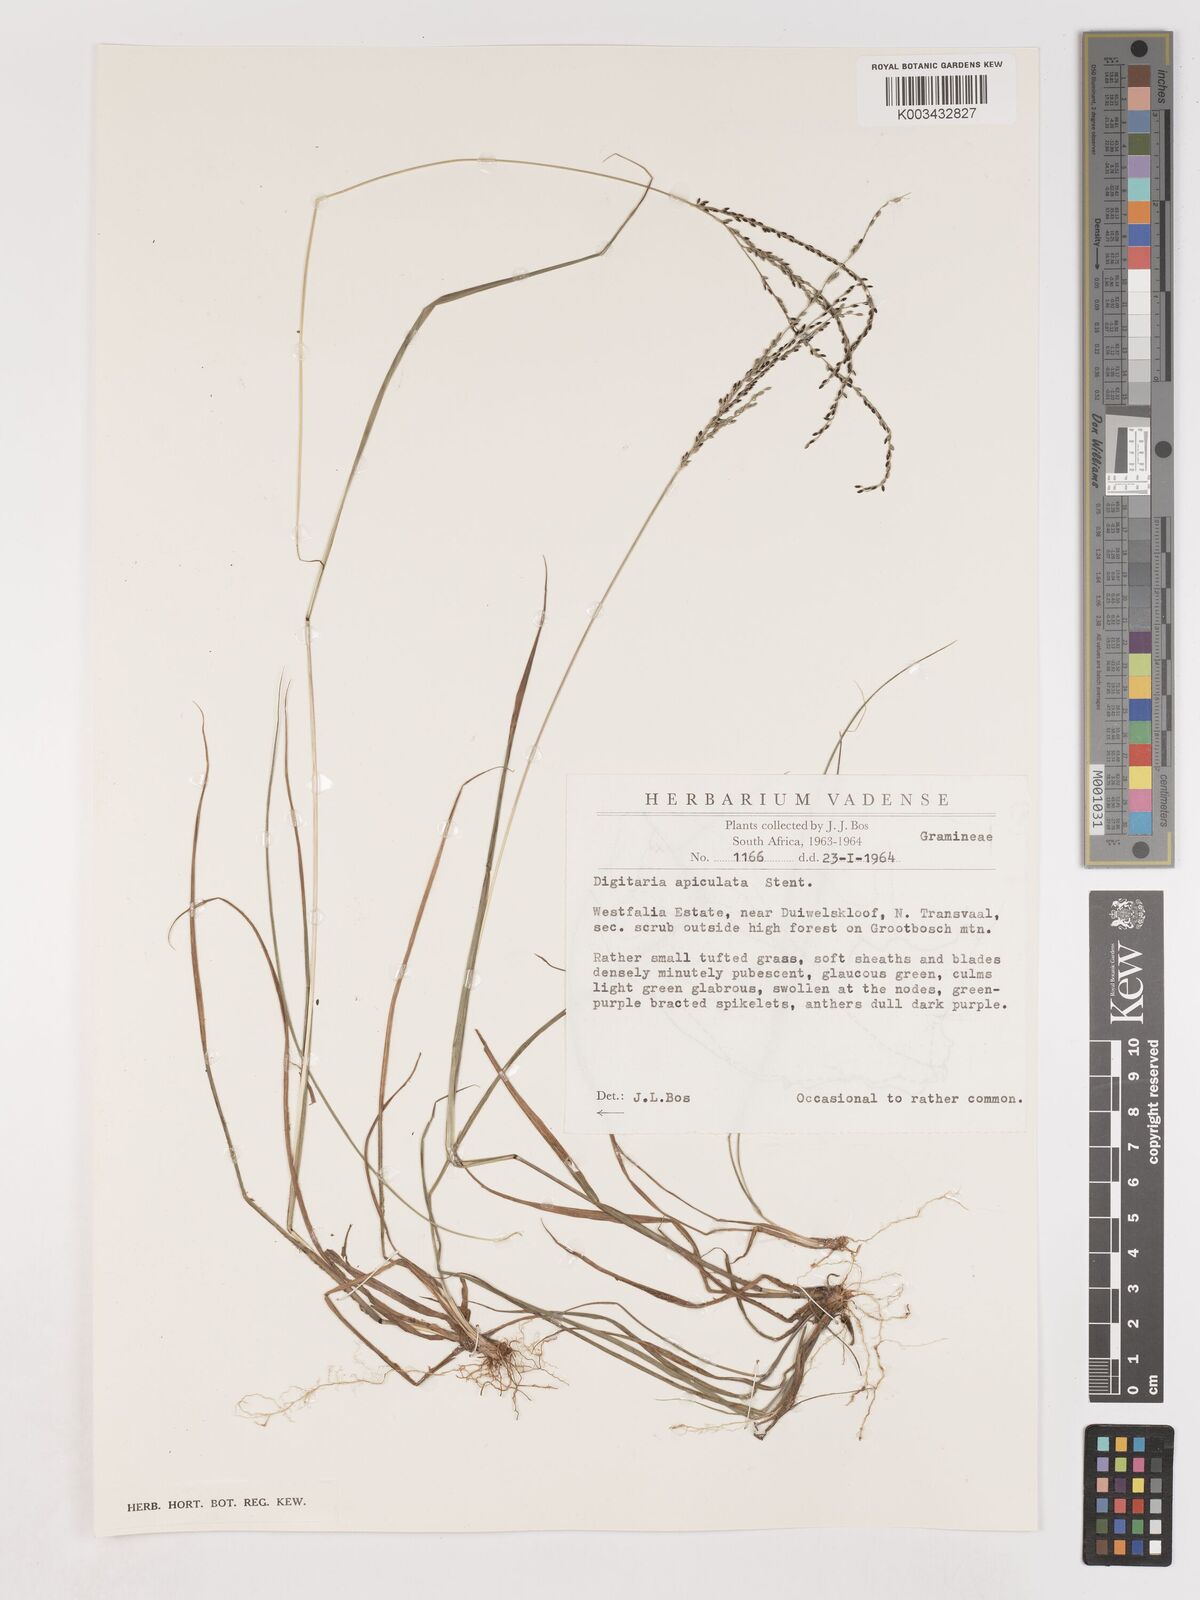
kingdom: Plantae
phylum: Tracheophyta
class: Liliopsida
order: Poales
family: Poaceae
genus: Digitaria
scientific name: Digitaria maitlandii
